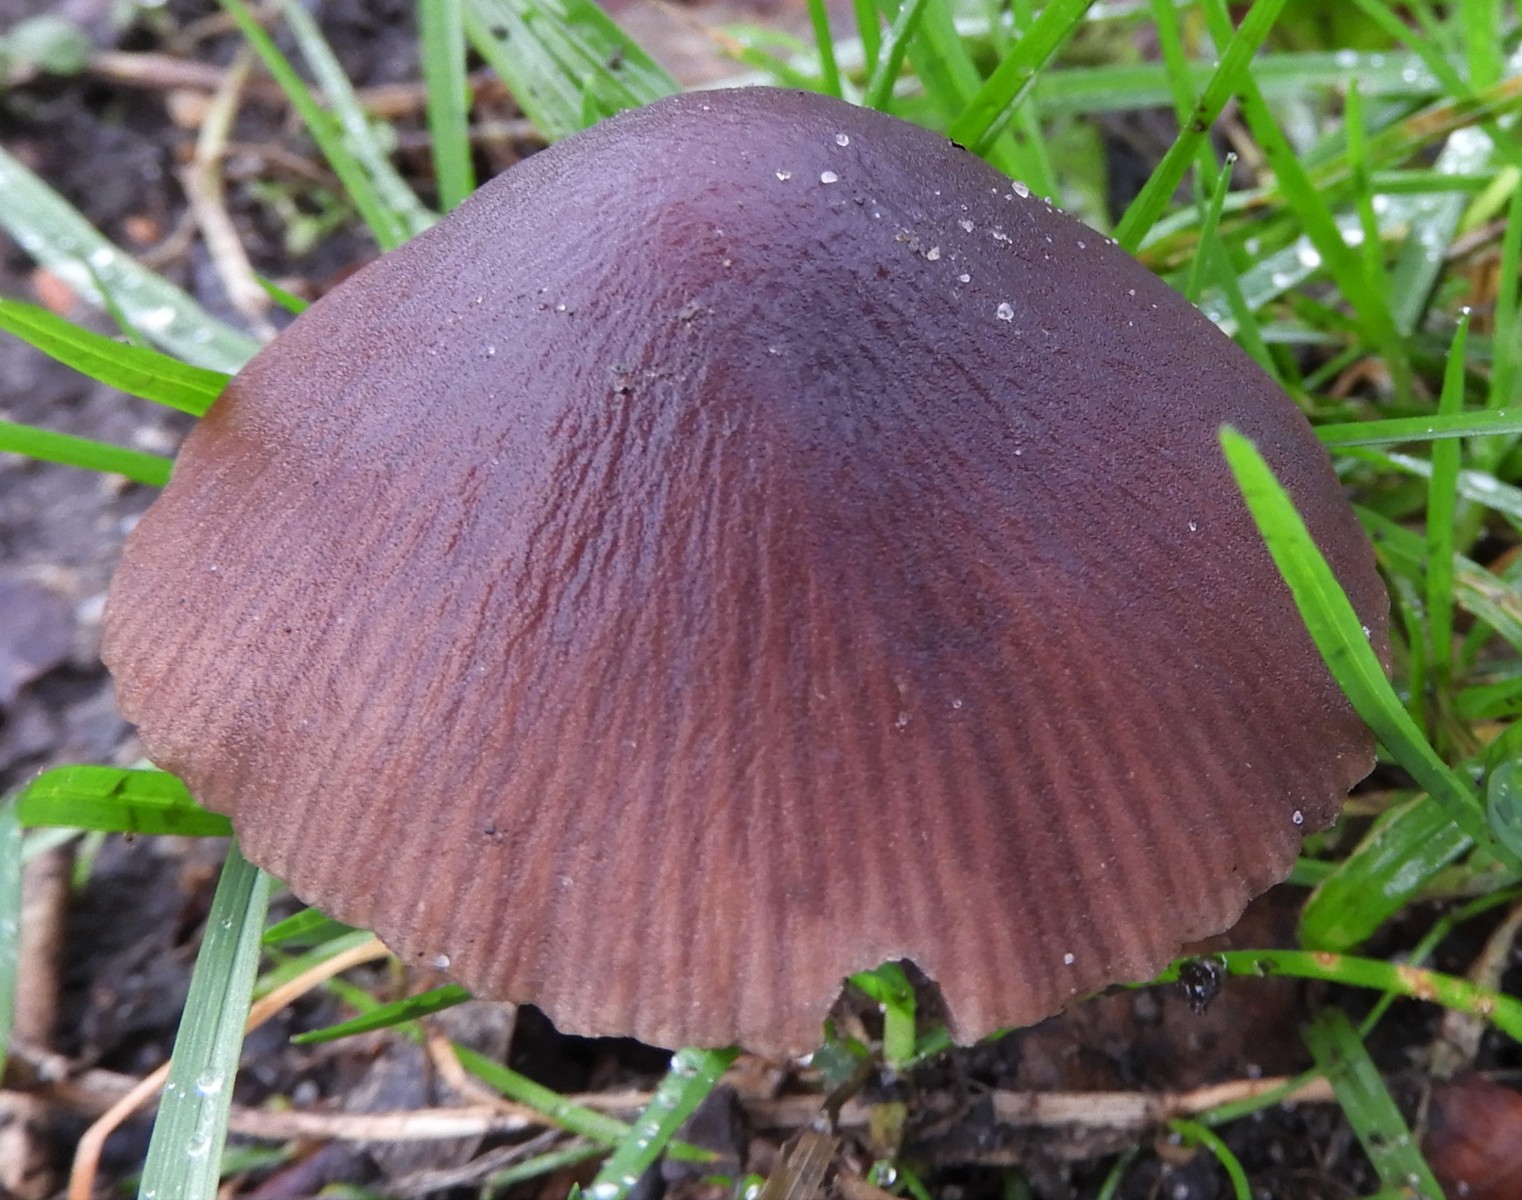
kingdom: Fungi
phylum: Basidiomycota
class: Agaricomycetes
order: Agaricales
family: Psathyrellaceae
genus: Psathyrella
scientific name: Psathyrella bipellis
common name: vinrød mørkhat
